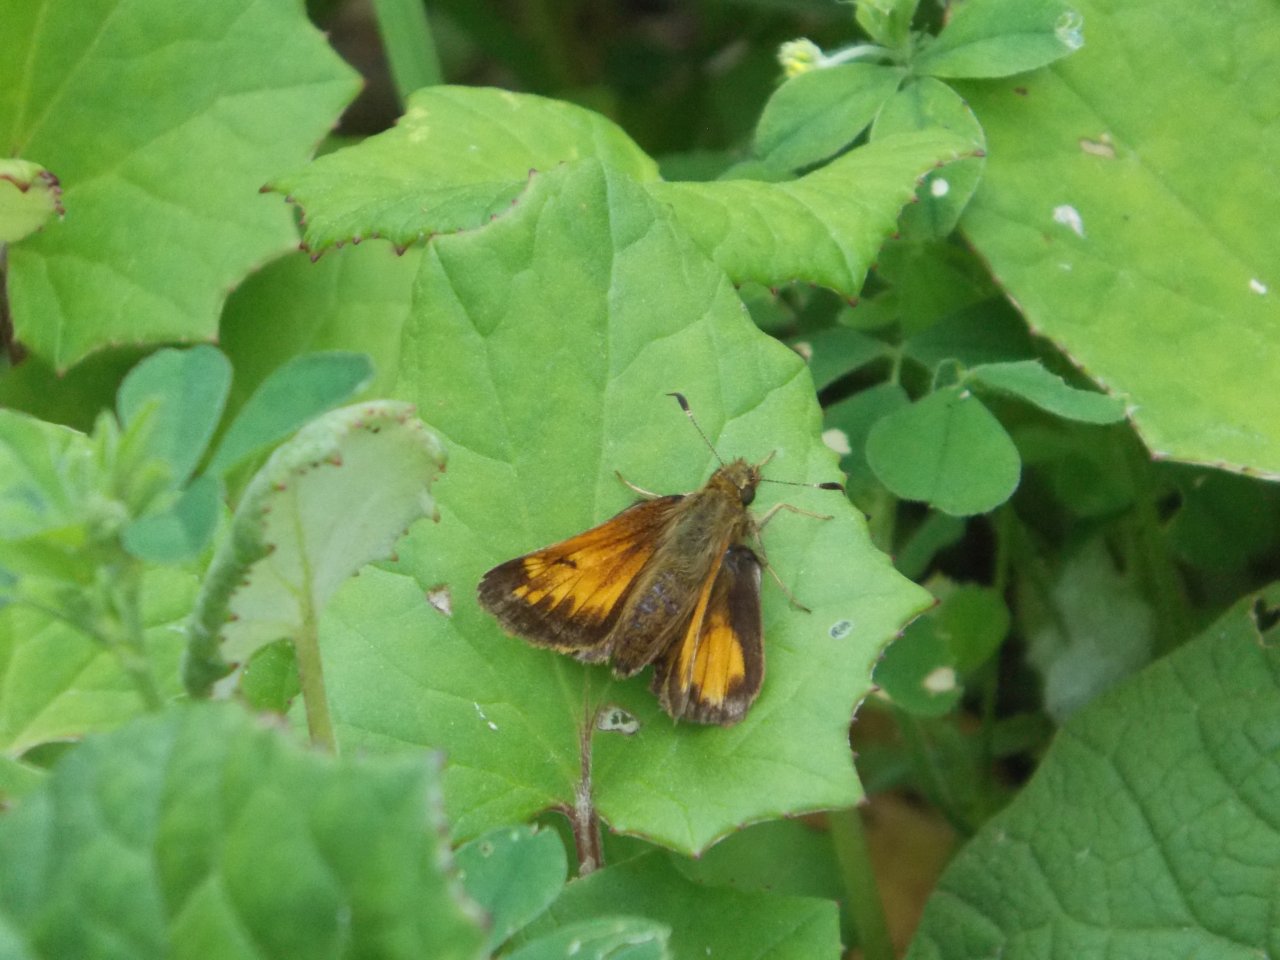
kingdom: Animalia
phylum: Arthropoda
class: Insecta
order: Lepidoptera
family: Hesperiidae
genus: Lon
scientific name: Lon hobomok
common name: Hobomok Skipper
